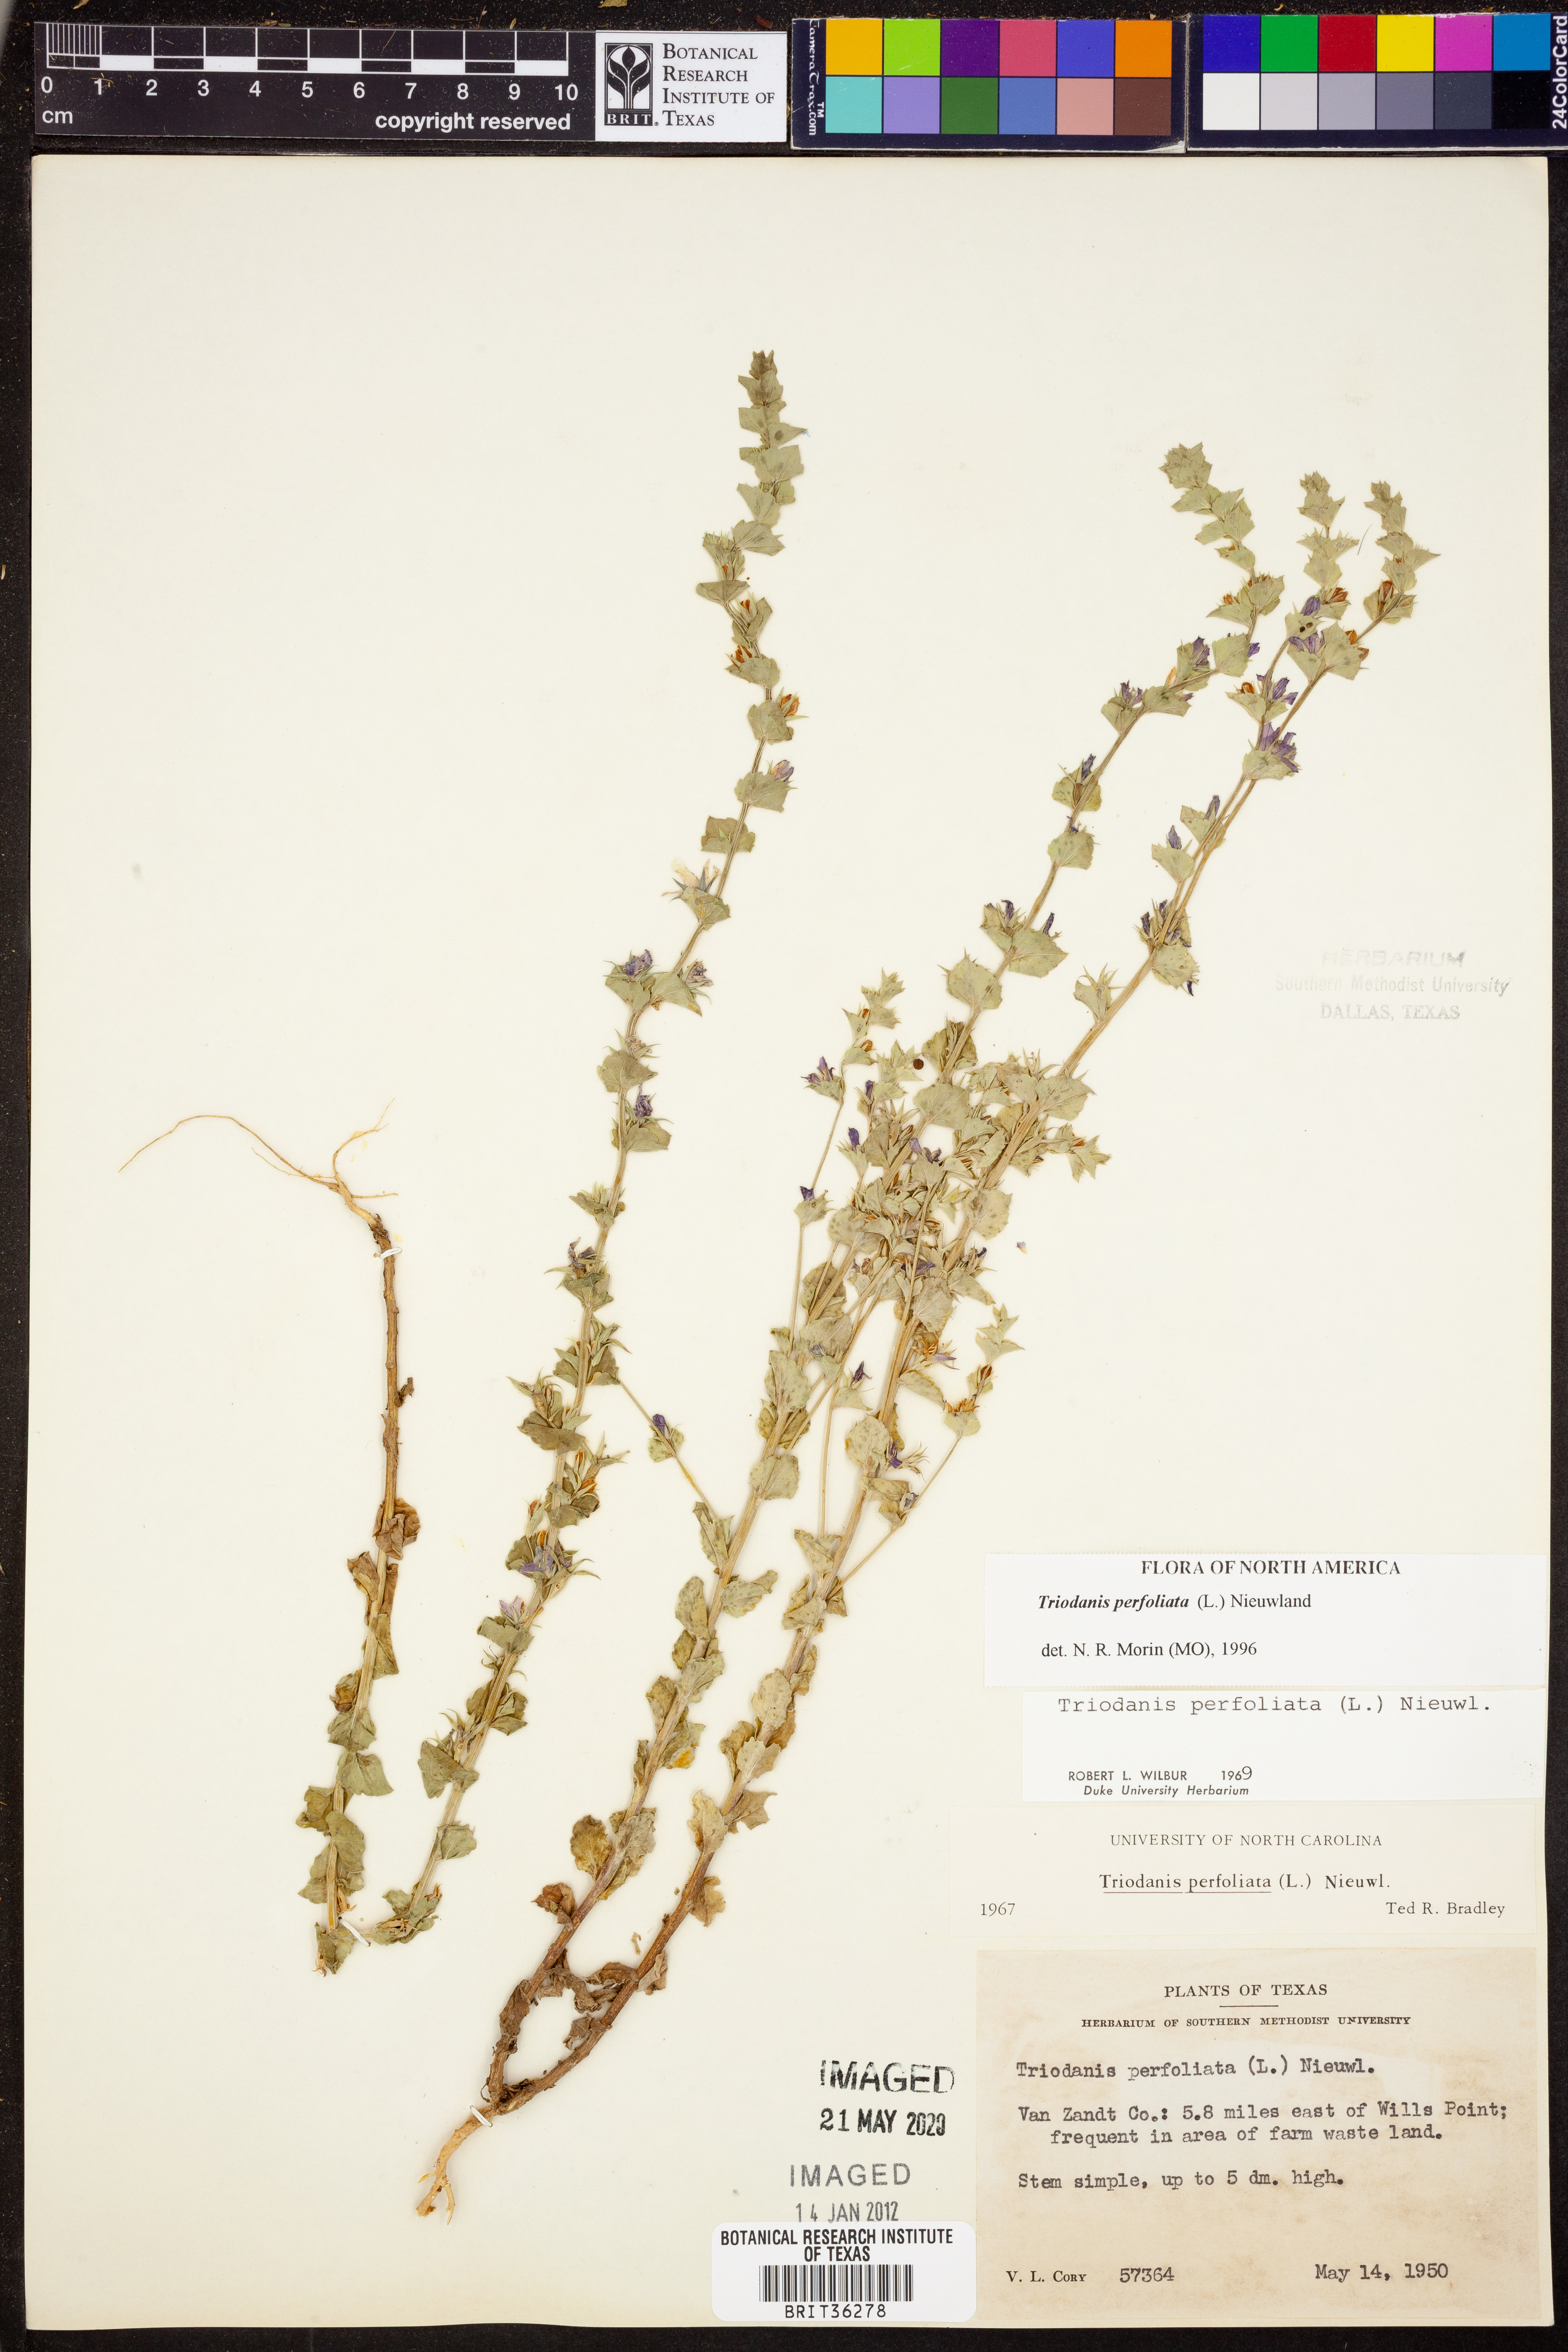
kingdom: Plantae
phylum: Tracheophyta
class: Magnoliopsida
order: Asterales
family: Campanulaceae
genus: Triodanis
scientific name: Triodanis perfoliata
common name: Clasping venus' looking-glass
